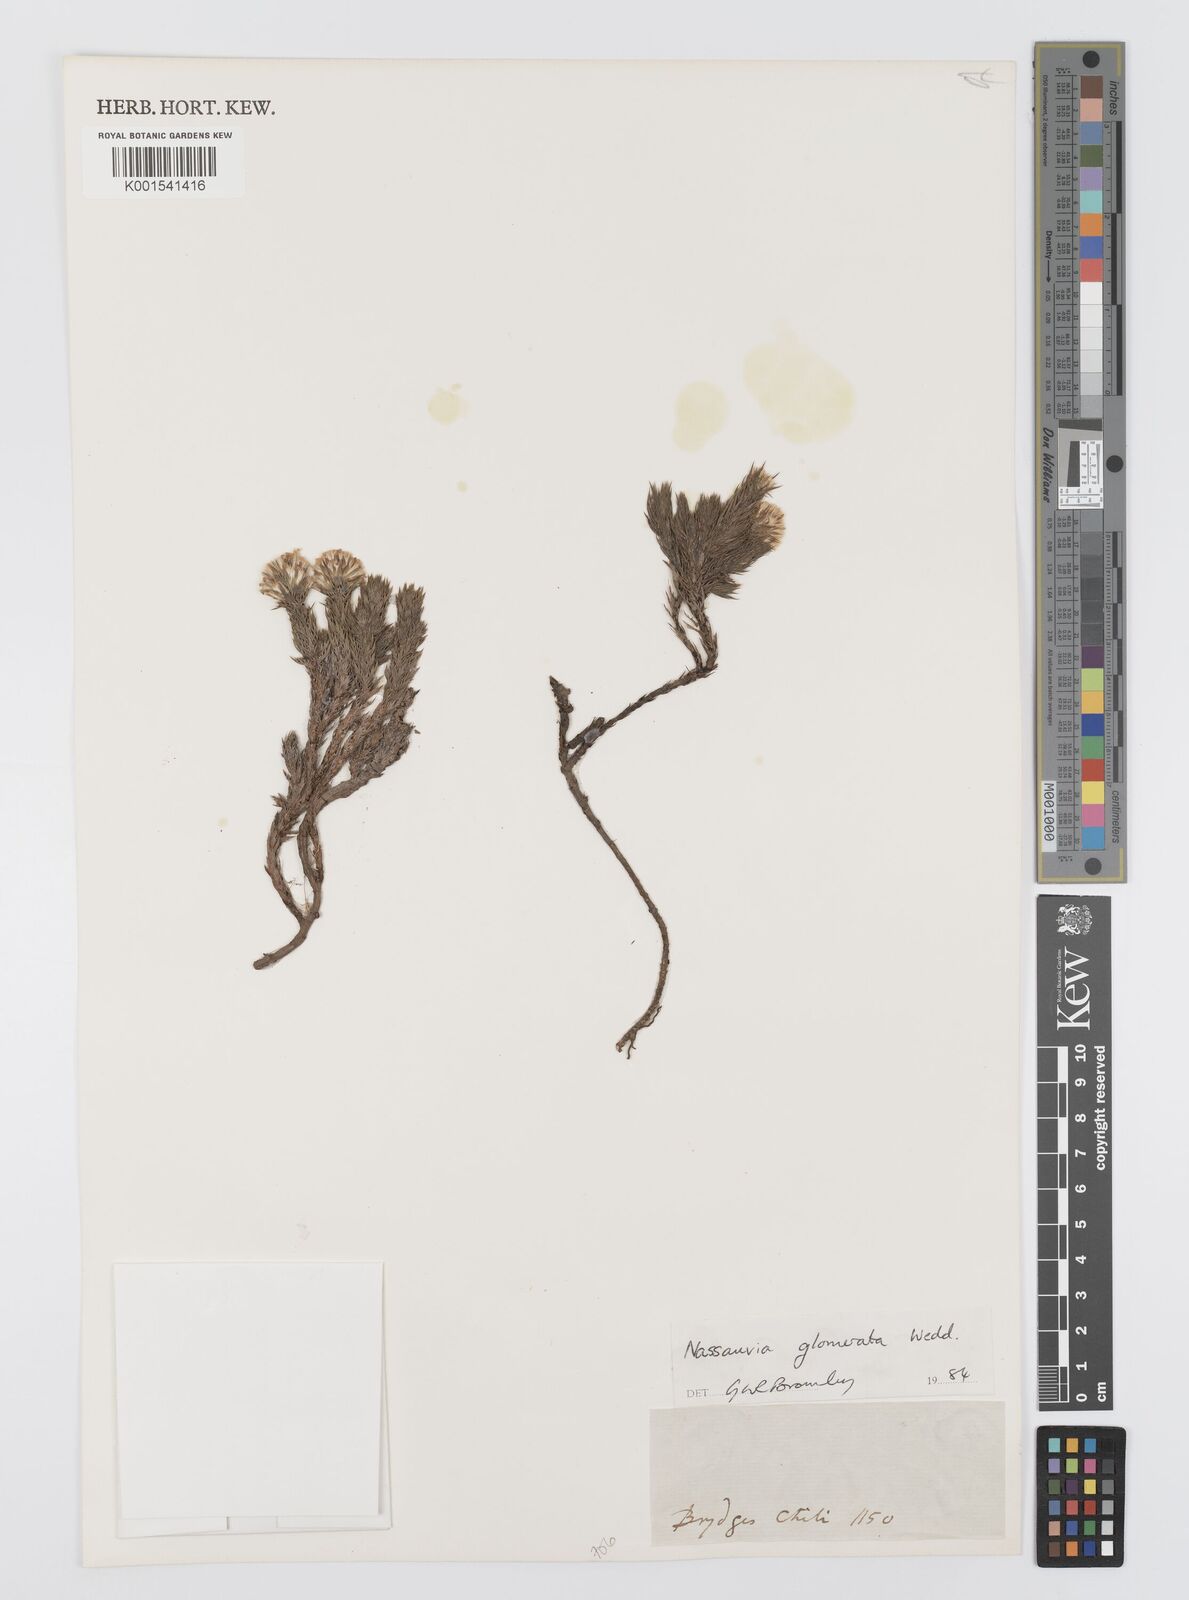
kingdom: Plantae
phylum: Tracheophyta
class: Magnoliopsida
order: Asterales
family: Asteraceae
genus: Nassauvia
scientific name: Nassauvia glomerata
